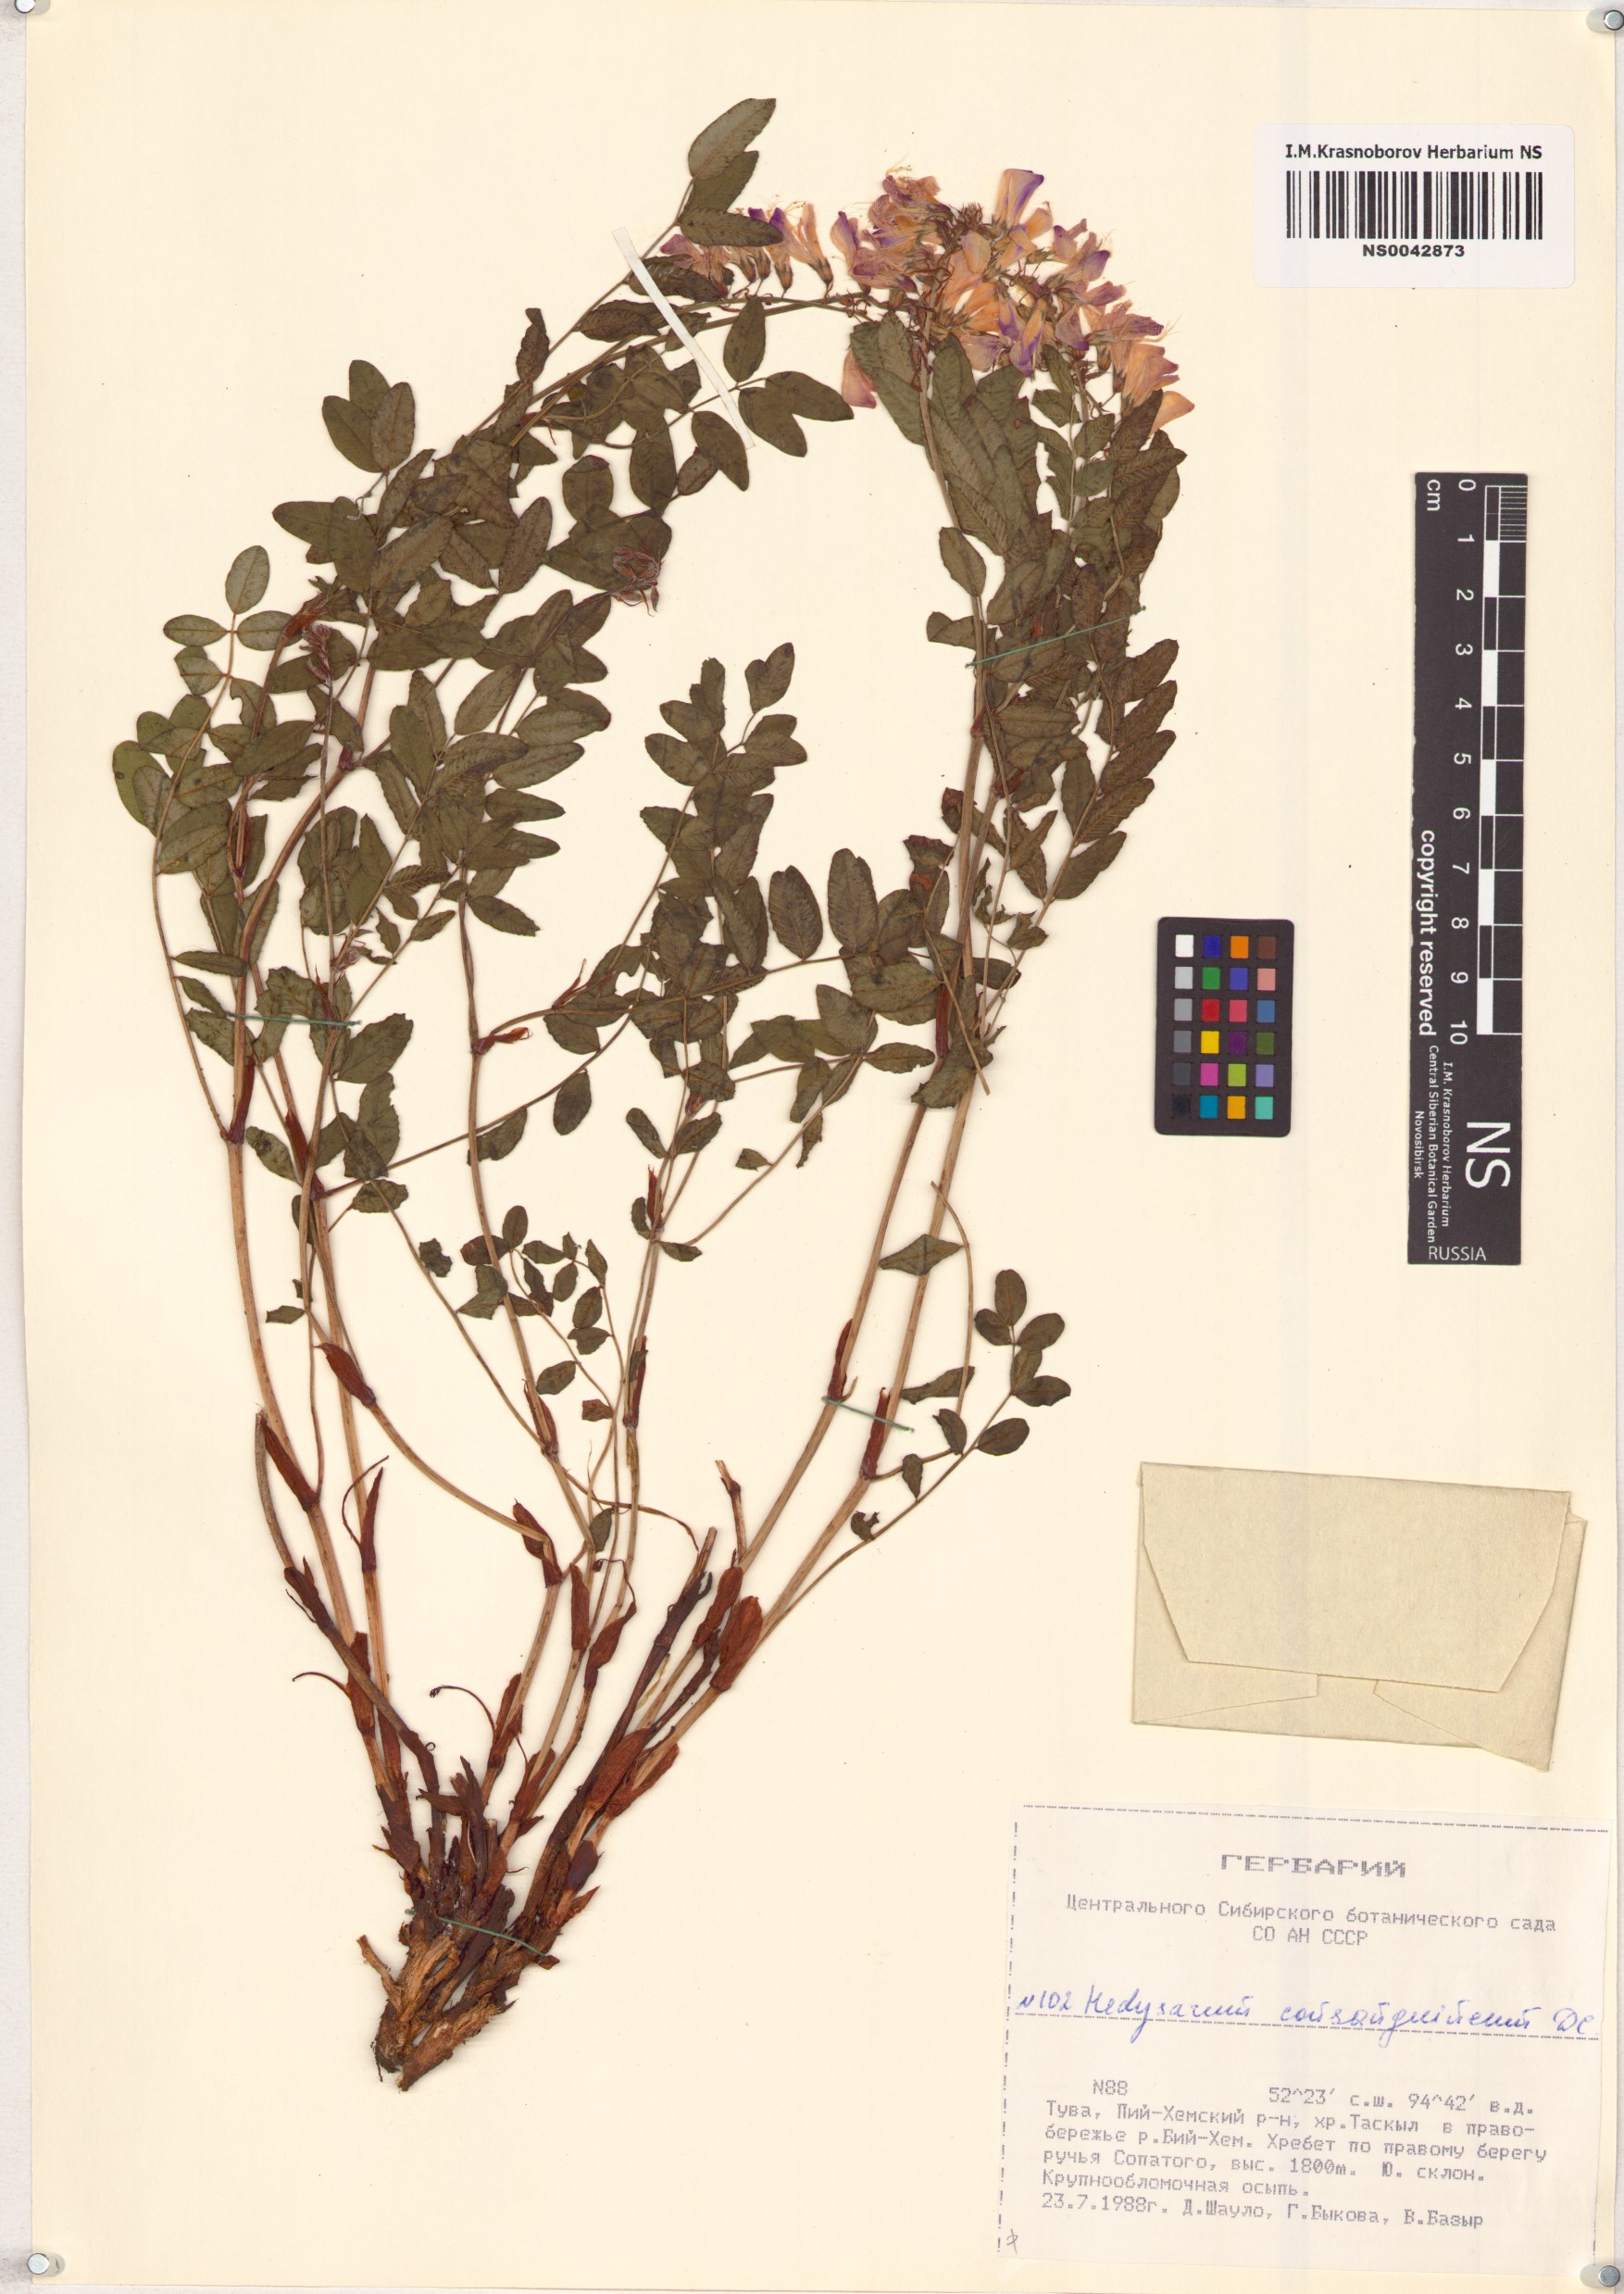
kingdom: Plantae
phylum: Tracheophyta
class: Magnoliopsida
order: Fabales
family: Fabaceae
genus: Hedysarum
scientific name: Hedysarum consanguineum
